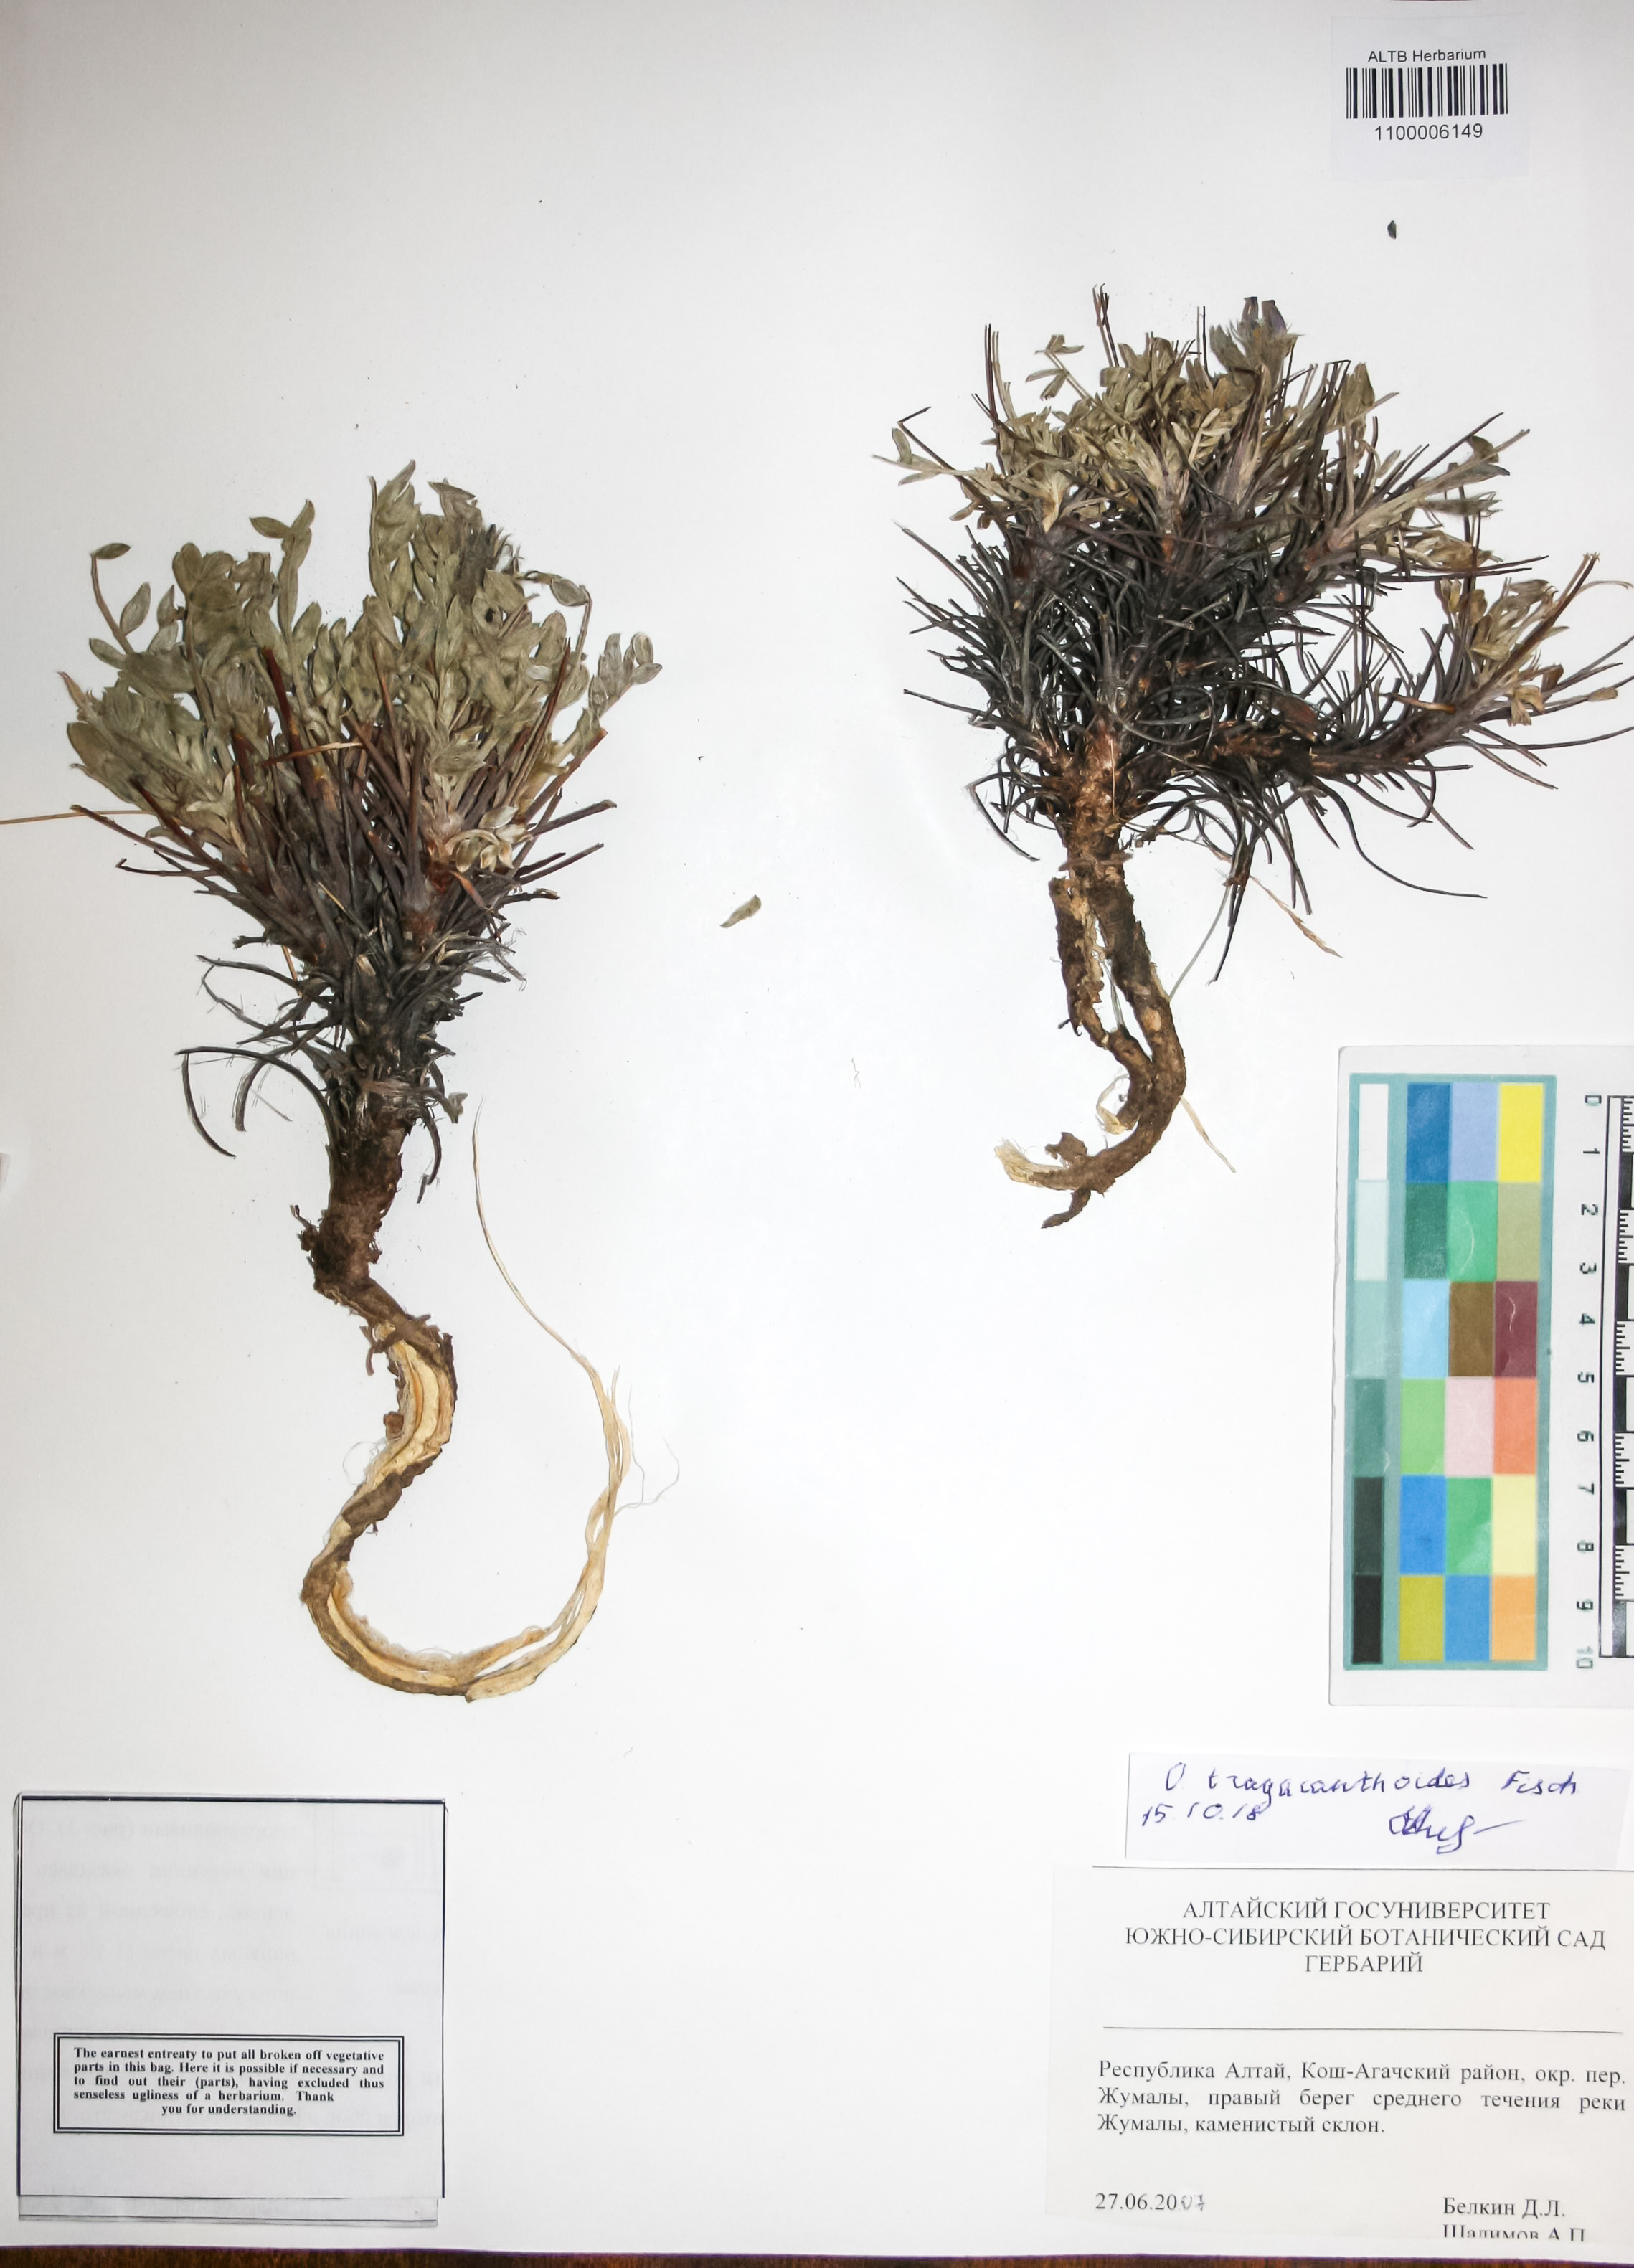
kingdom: Plantae
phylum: Tracheophyta
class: Magnoliopsida
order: Fabales
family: Fabaceae
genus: Oxytropis
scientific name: Oxytropis tragacanthoides
